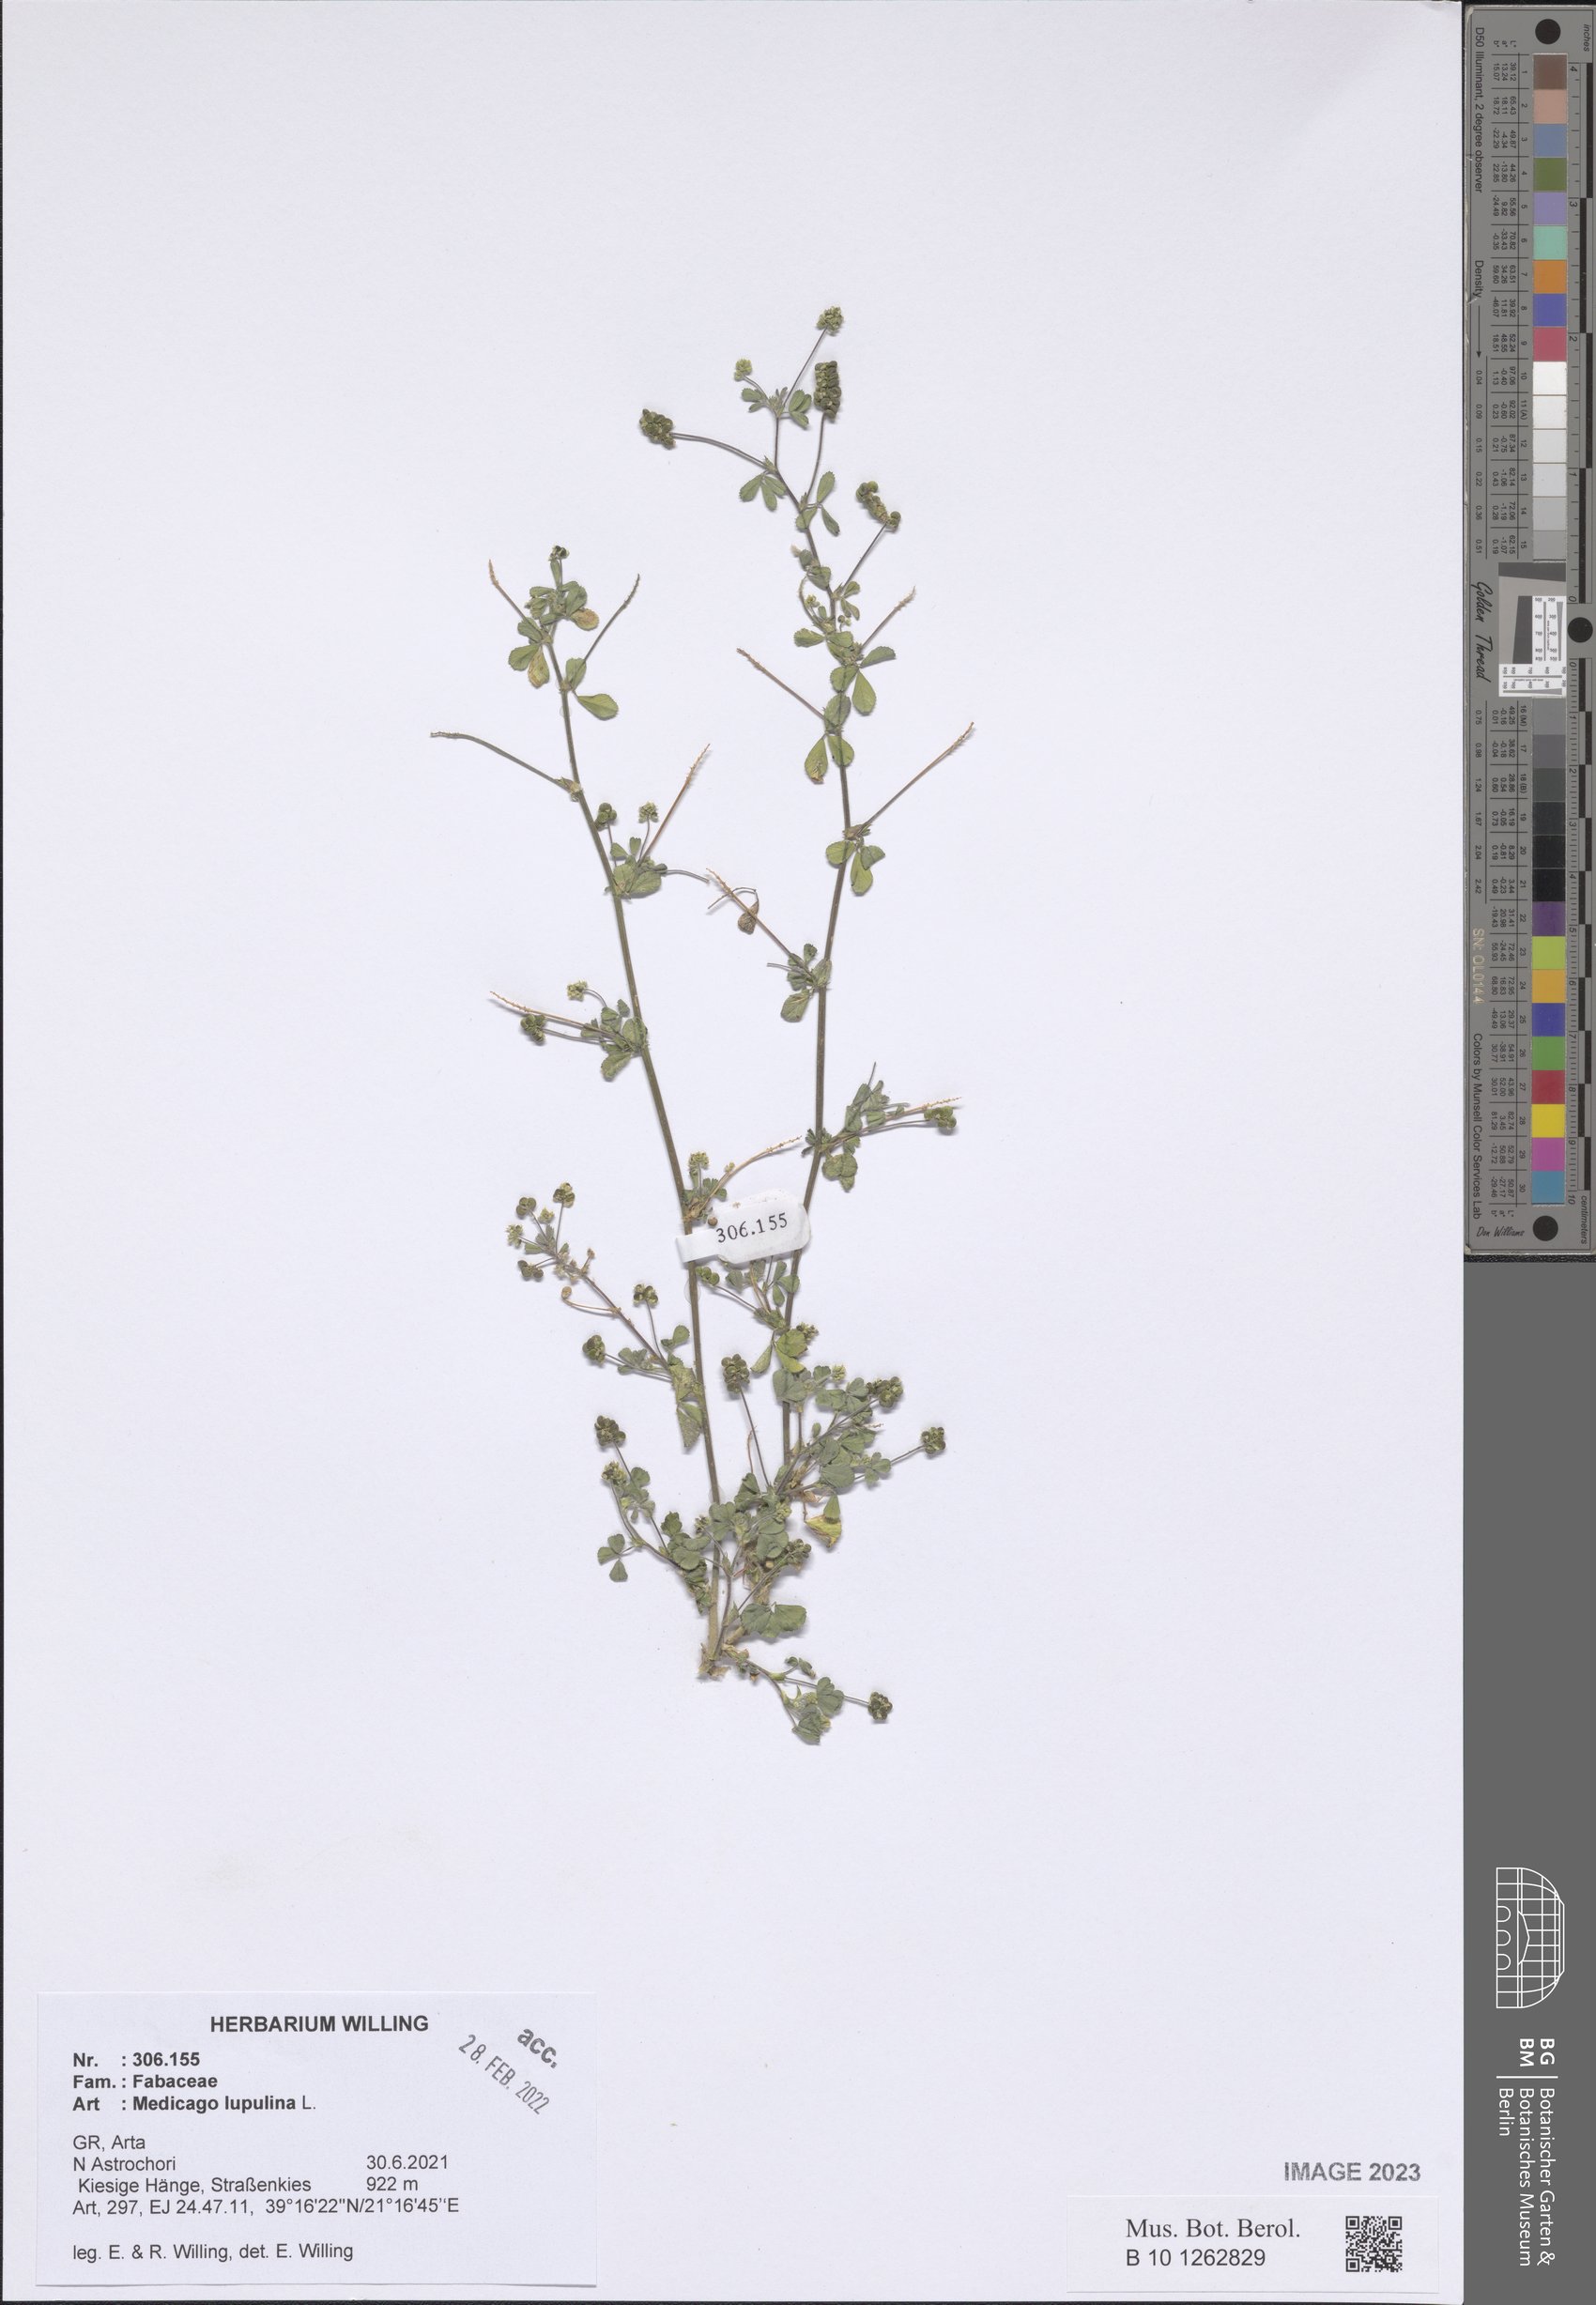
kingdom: Plantae
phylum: Tracheophyta
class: Magnoliopsida
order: Fabales
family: Fabaceae
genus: Medicago
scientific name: Medicago lupulina
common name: Black medick
